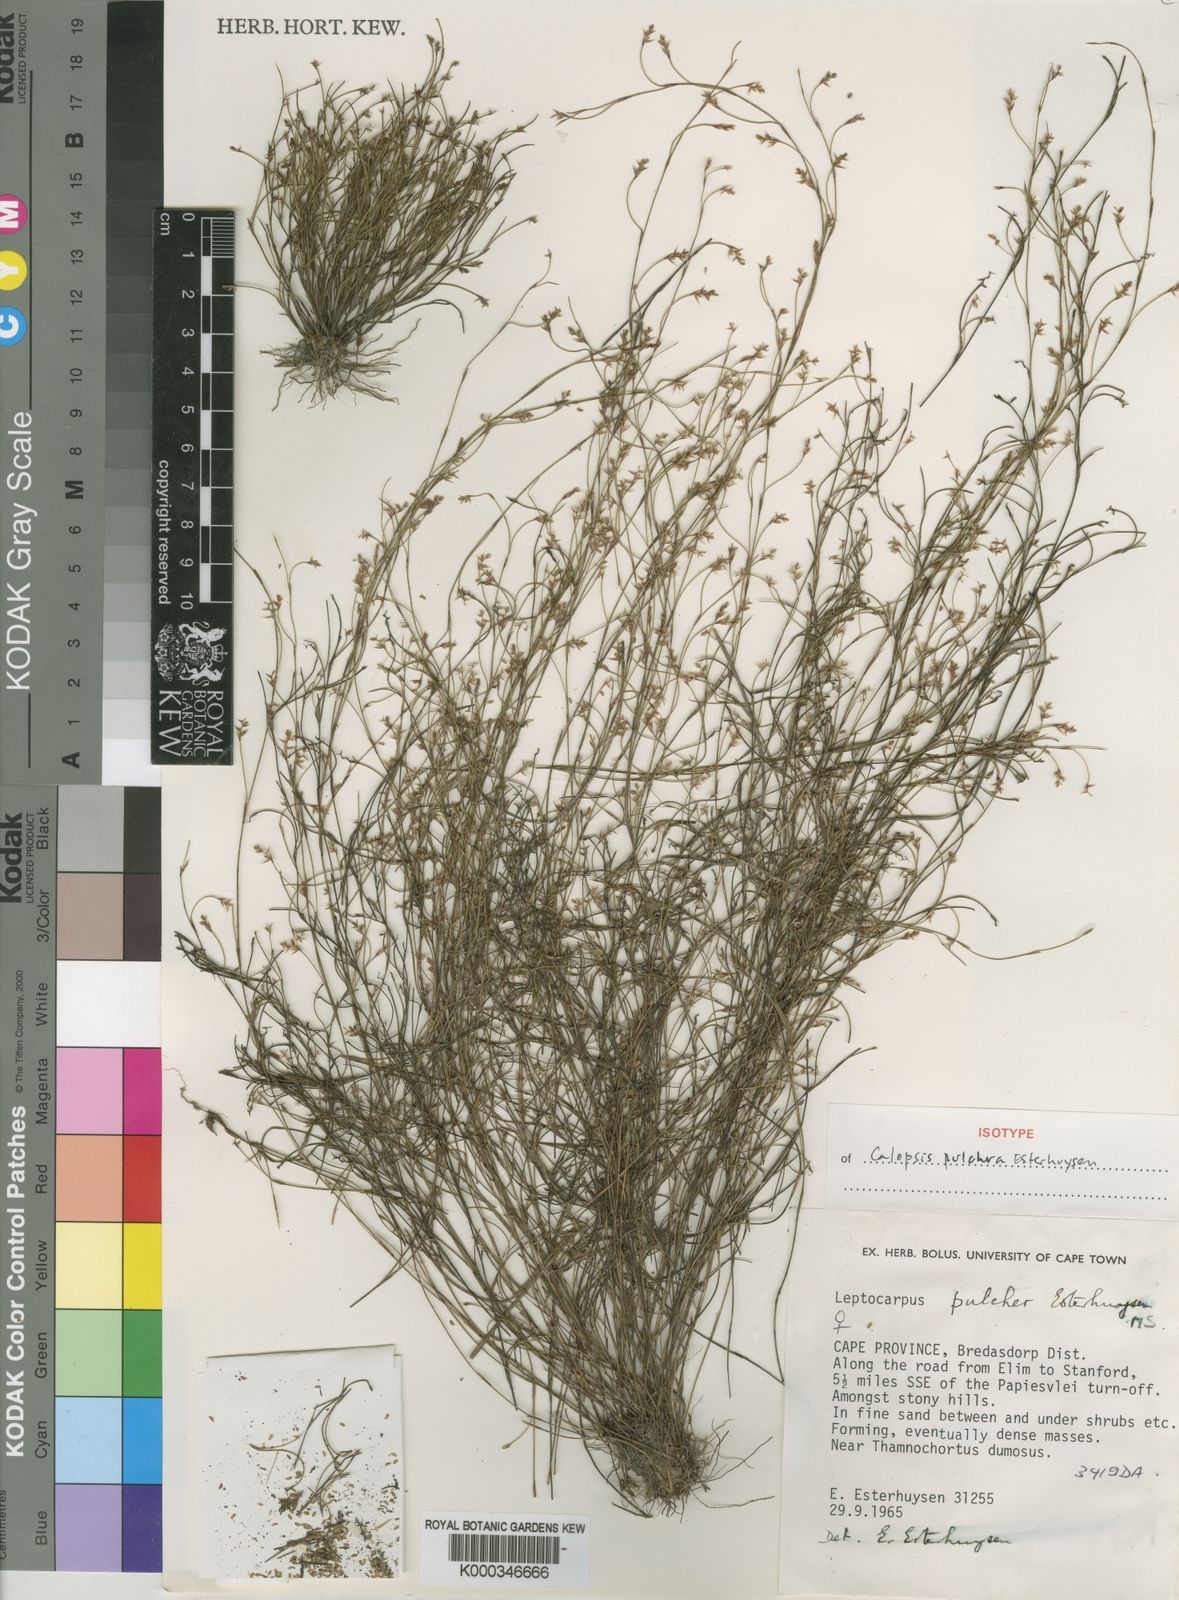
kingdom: Plantae
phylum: Tracheophyta
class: Liliopsida
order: Poales
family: Restionaceae
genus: Restio
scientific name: Restio pulcher
